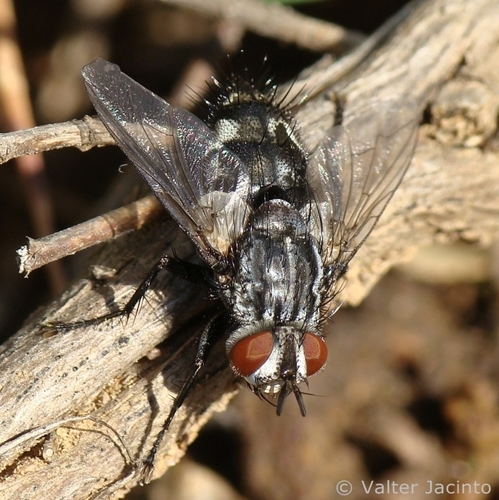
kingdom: Animalia
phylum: Arthropoda
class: Insecta
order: Diptera
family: Tachinidae
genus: Exorista
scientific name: Exorista segregata
